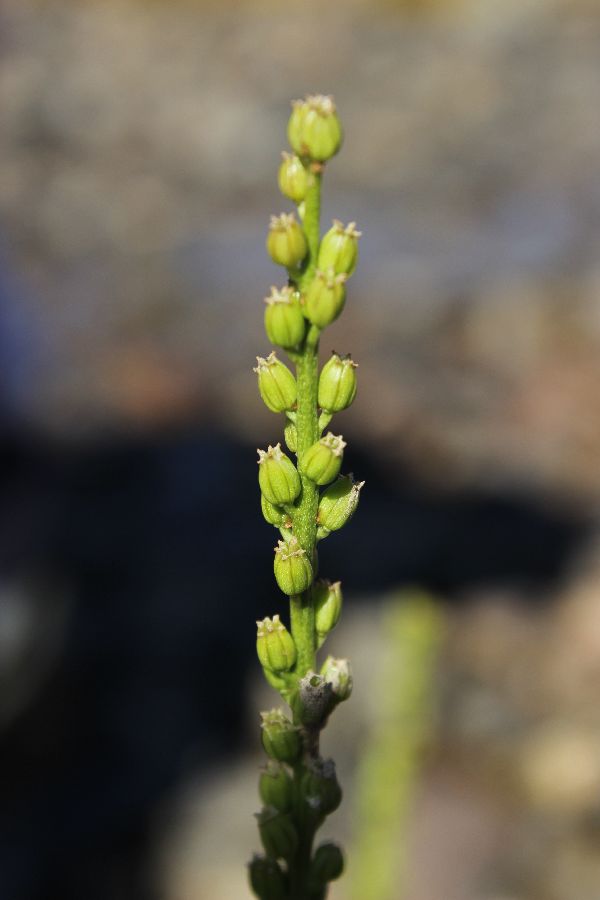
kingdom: Plantae
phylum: Tracheophyta
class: Liliopsida
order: Alismatales
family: Juncaginaceae
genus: Triglochin
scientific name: Triglochin maritima
